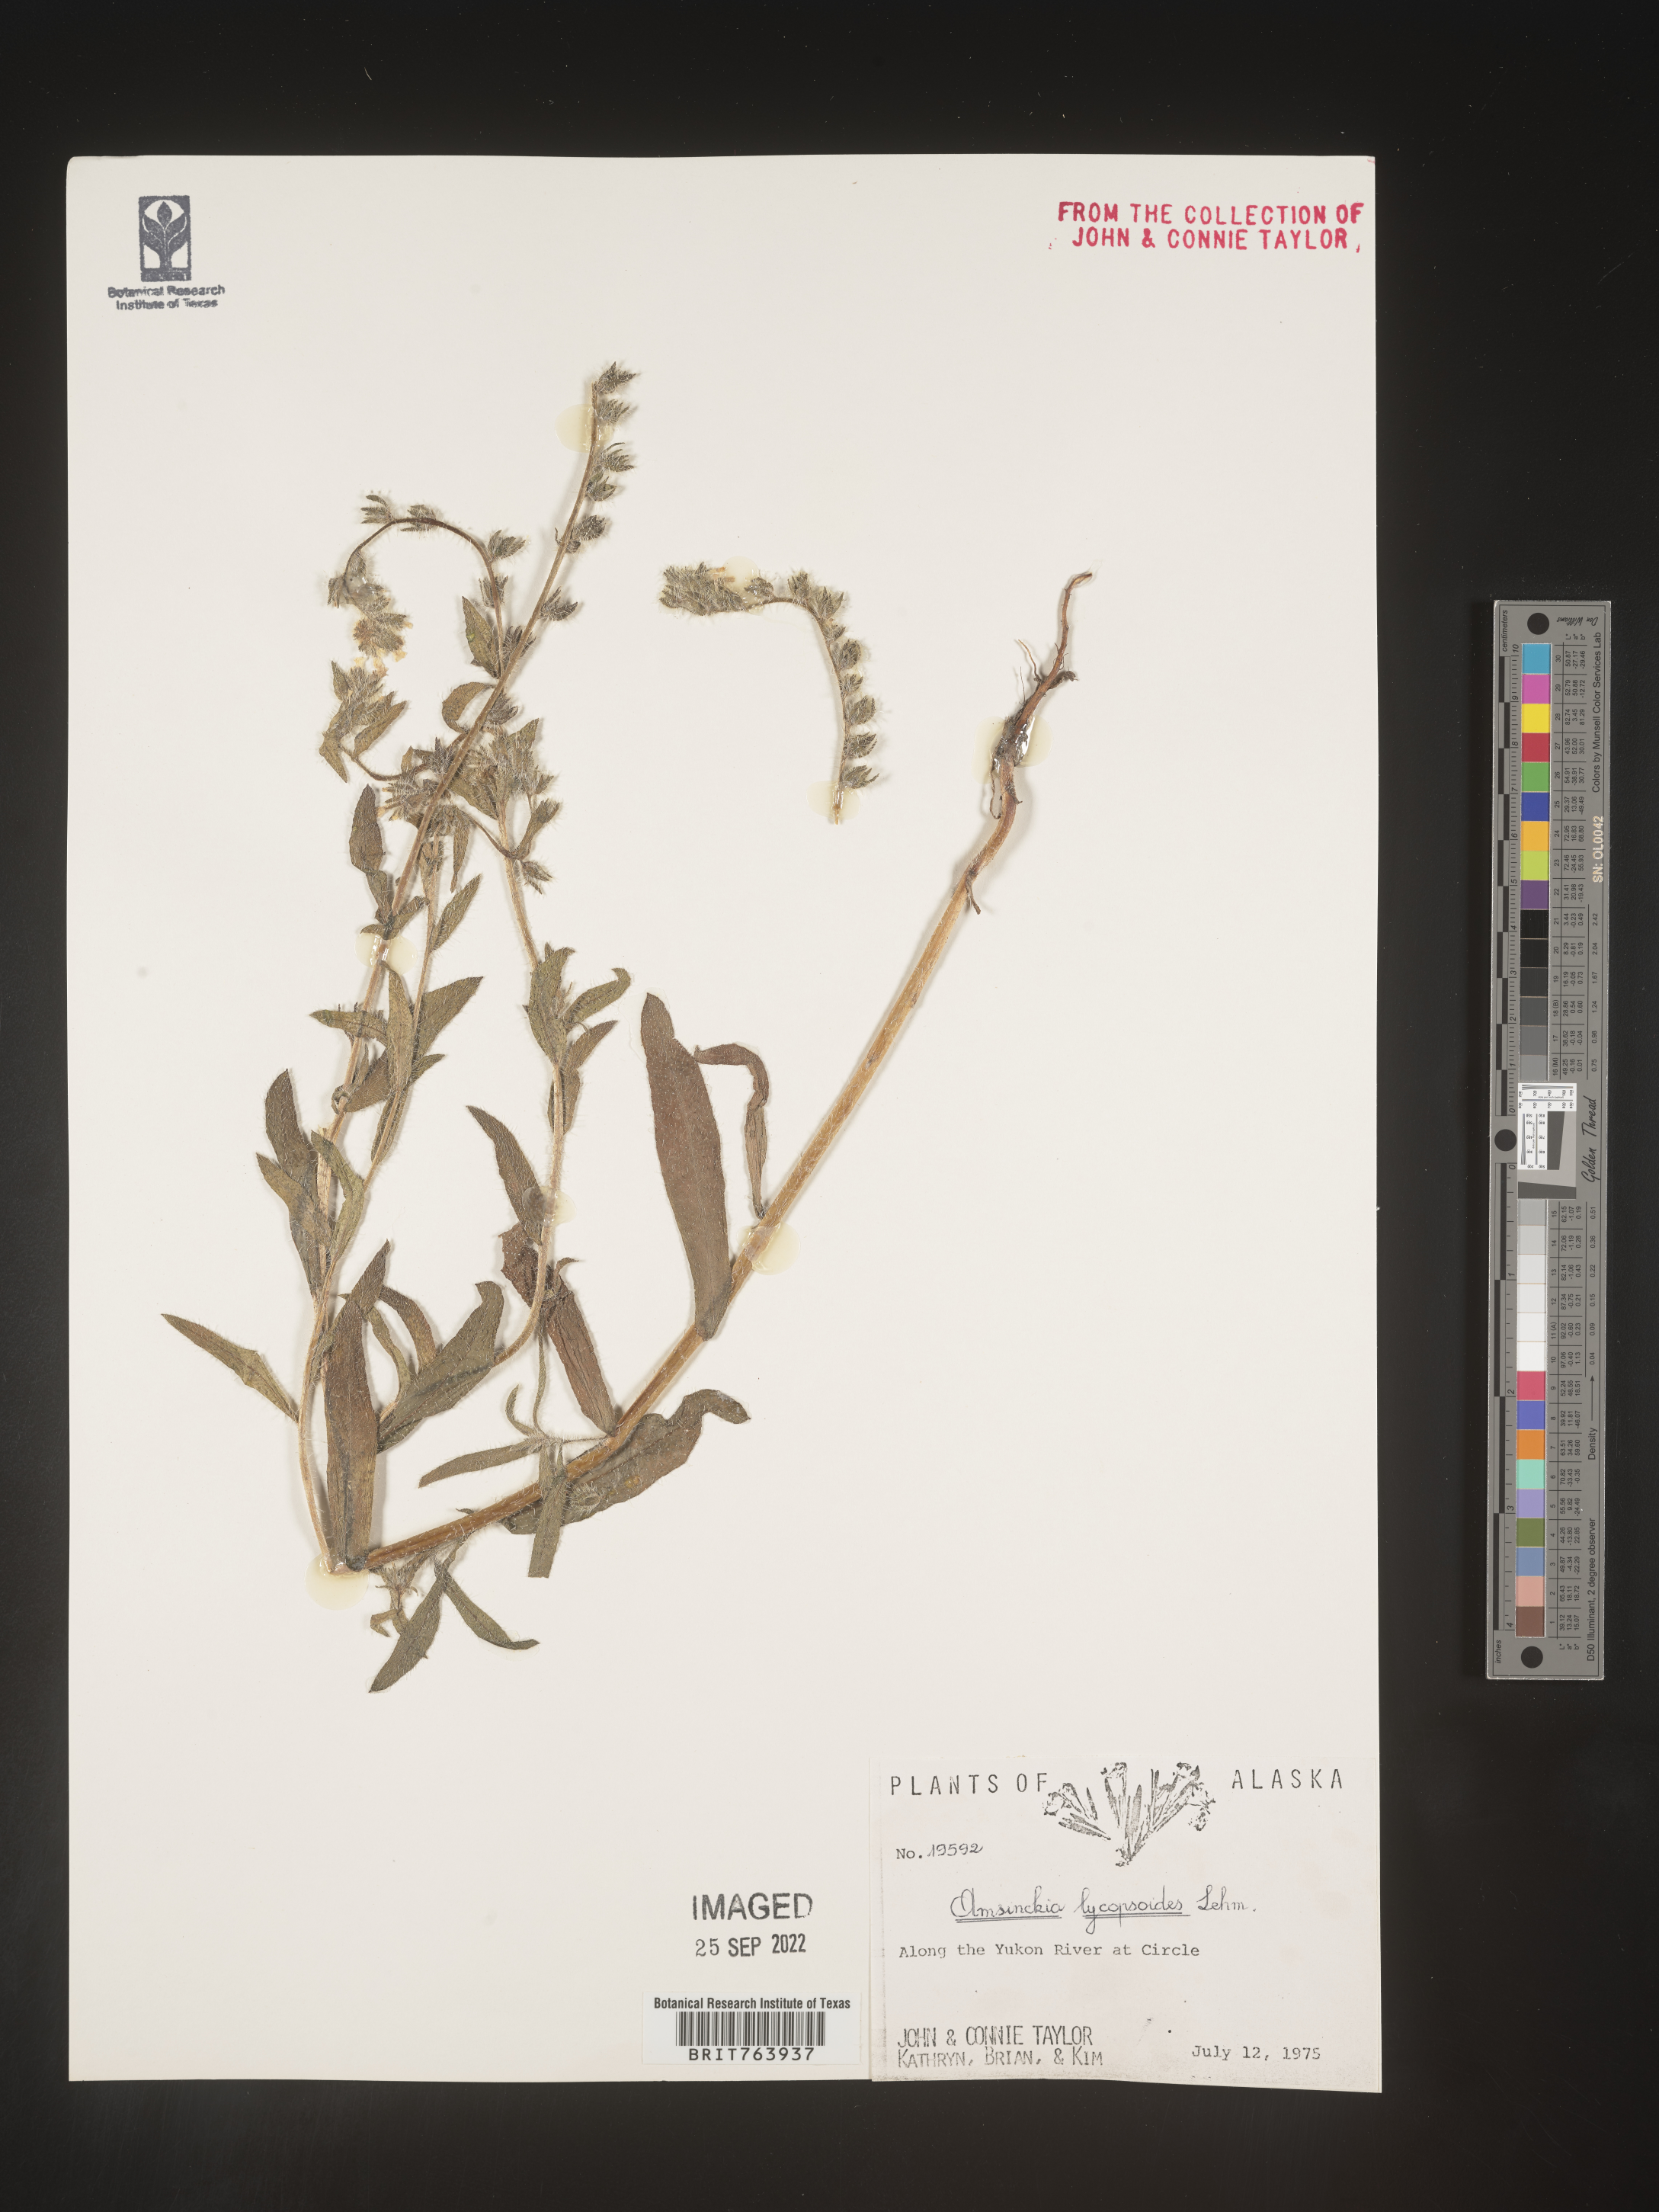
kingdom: Plantae
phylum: Tracheophyta
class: Magnoliopsida
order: Boraginales
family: Boraginaceae
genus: Amsinckia
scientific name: Amsinckia
